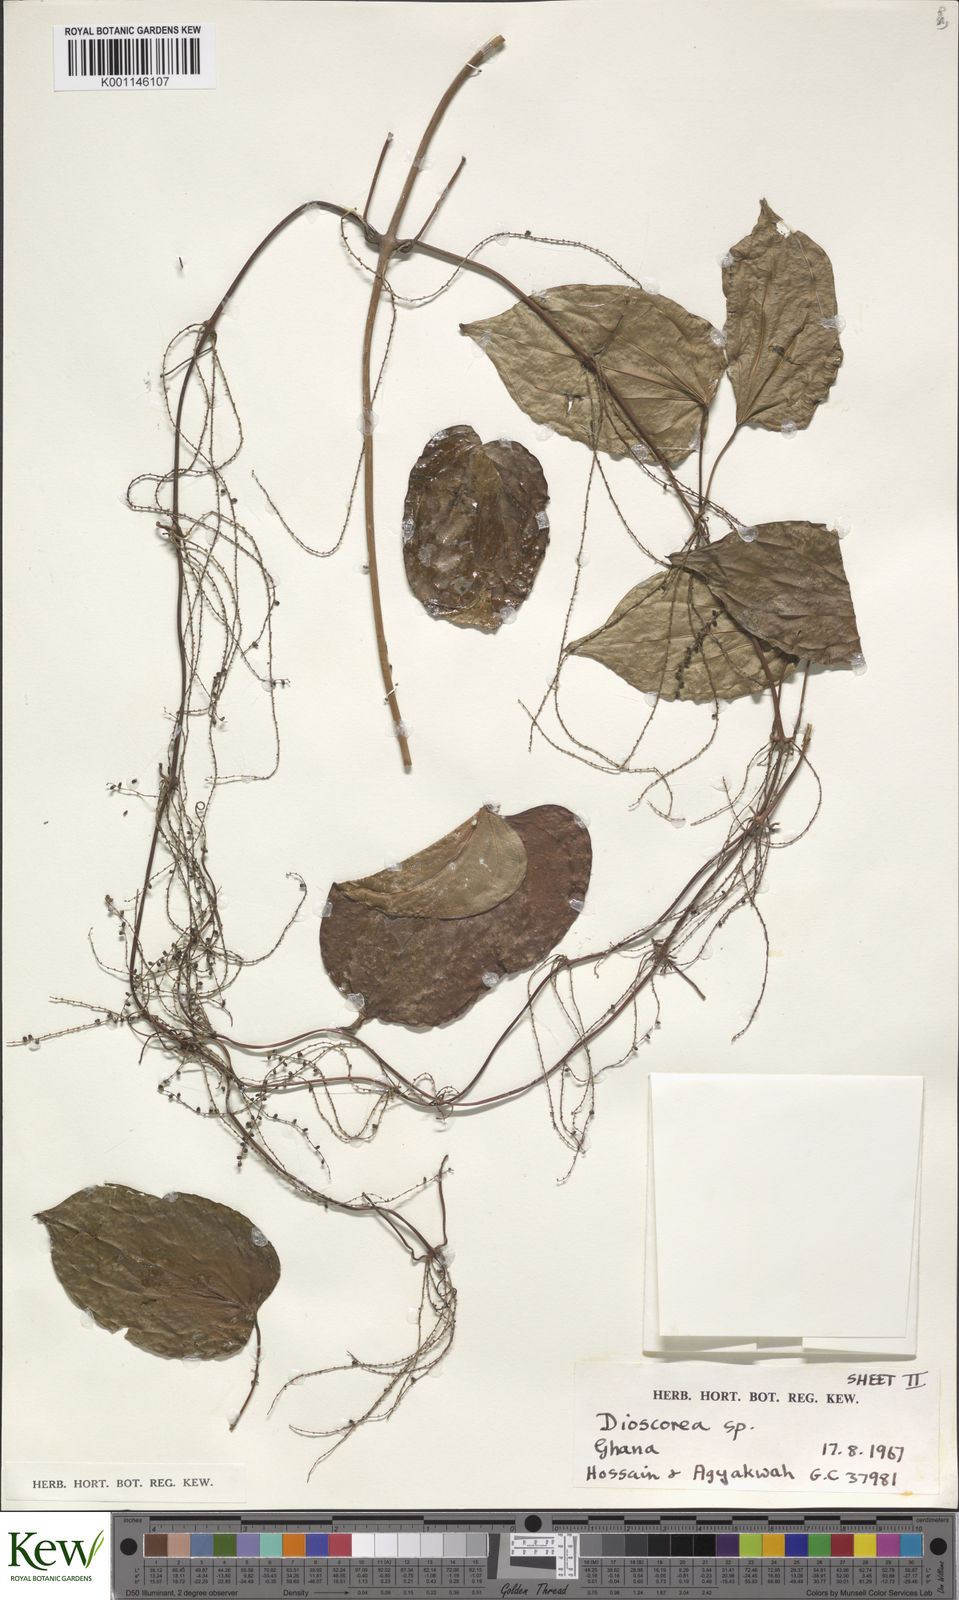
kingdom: Plantae
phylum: Tracheophyta
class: Liliopsida
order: Dioscoreales
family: Dioscoreaceae
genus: Dioscorea
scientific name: Dioscorea
